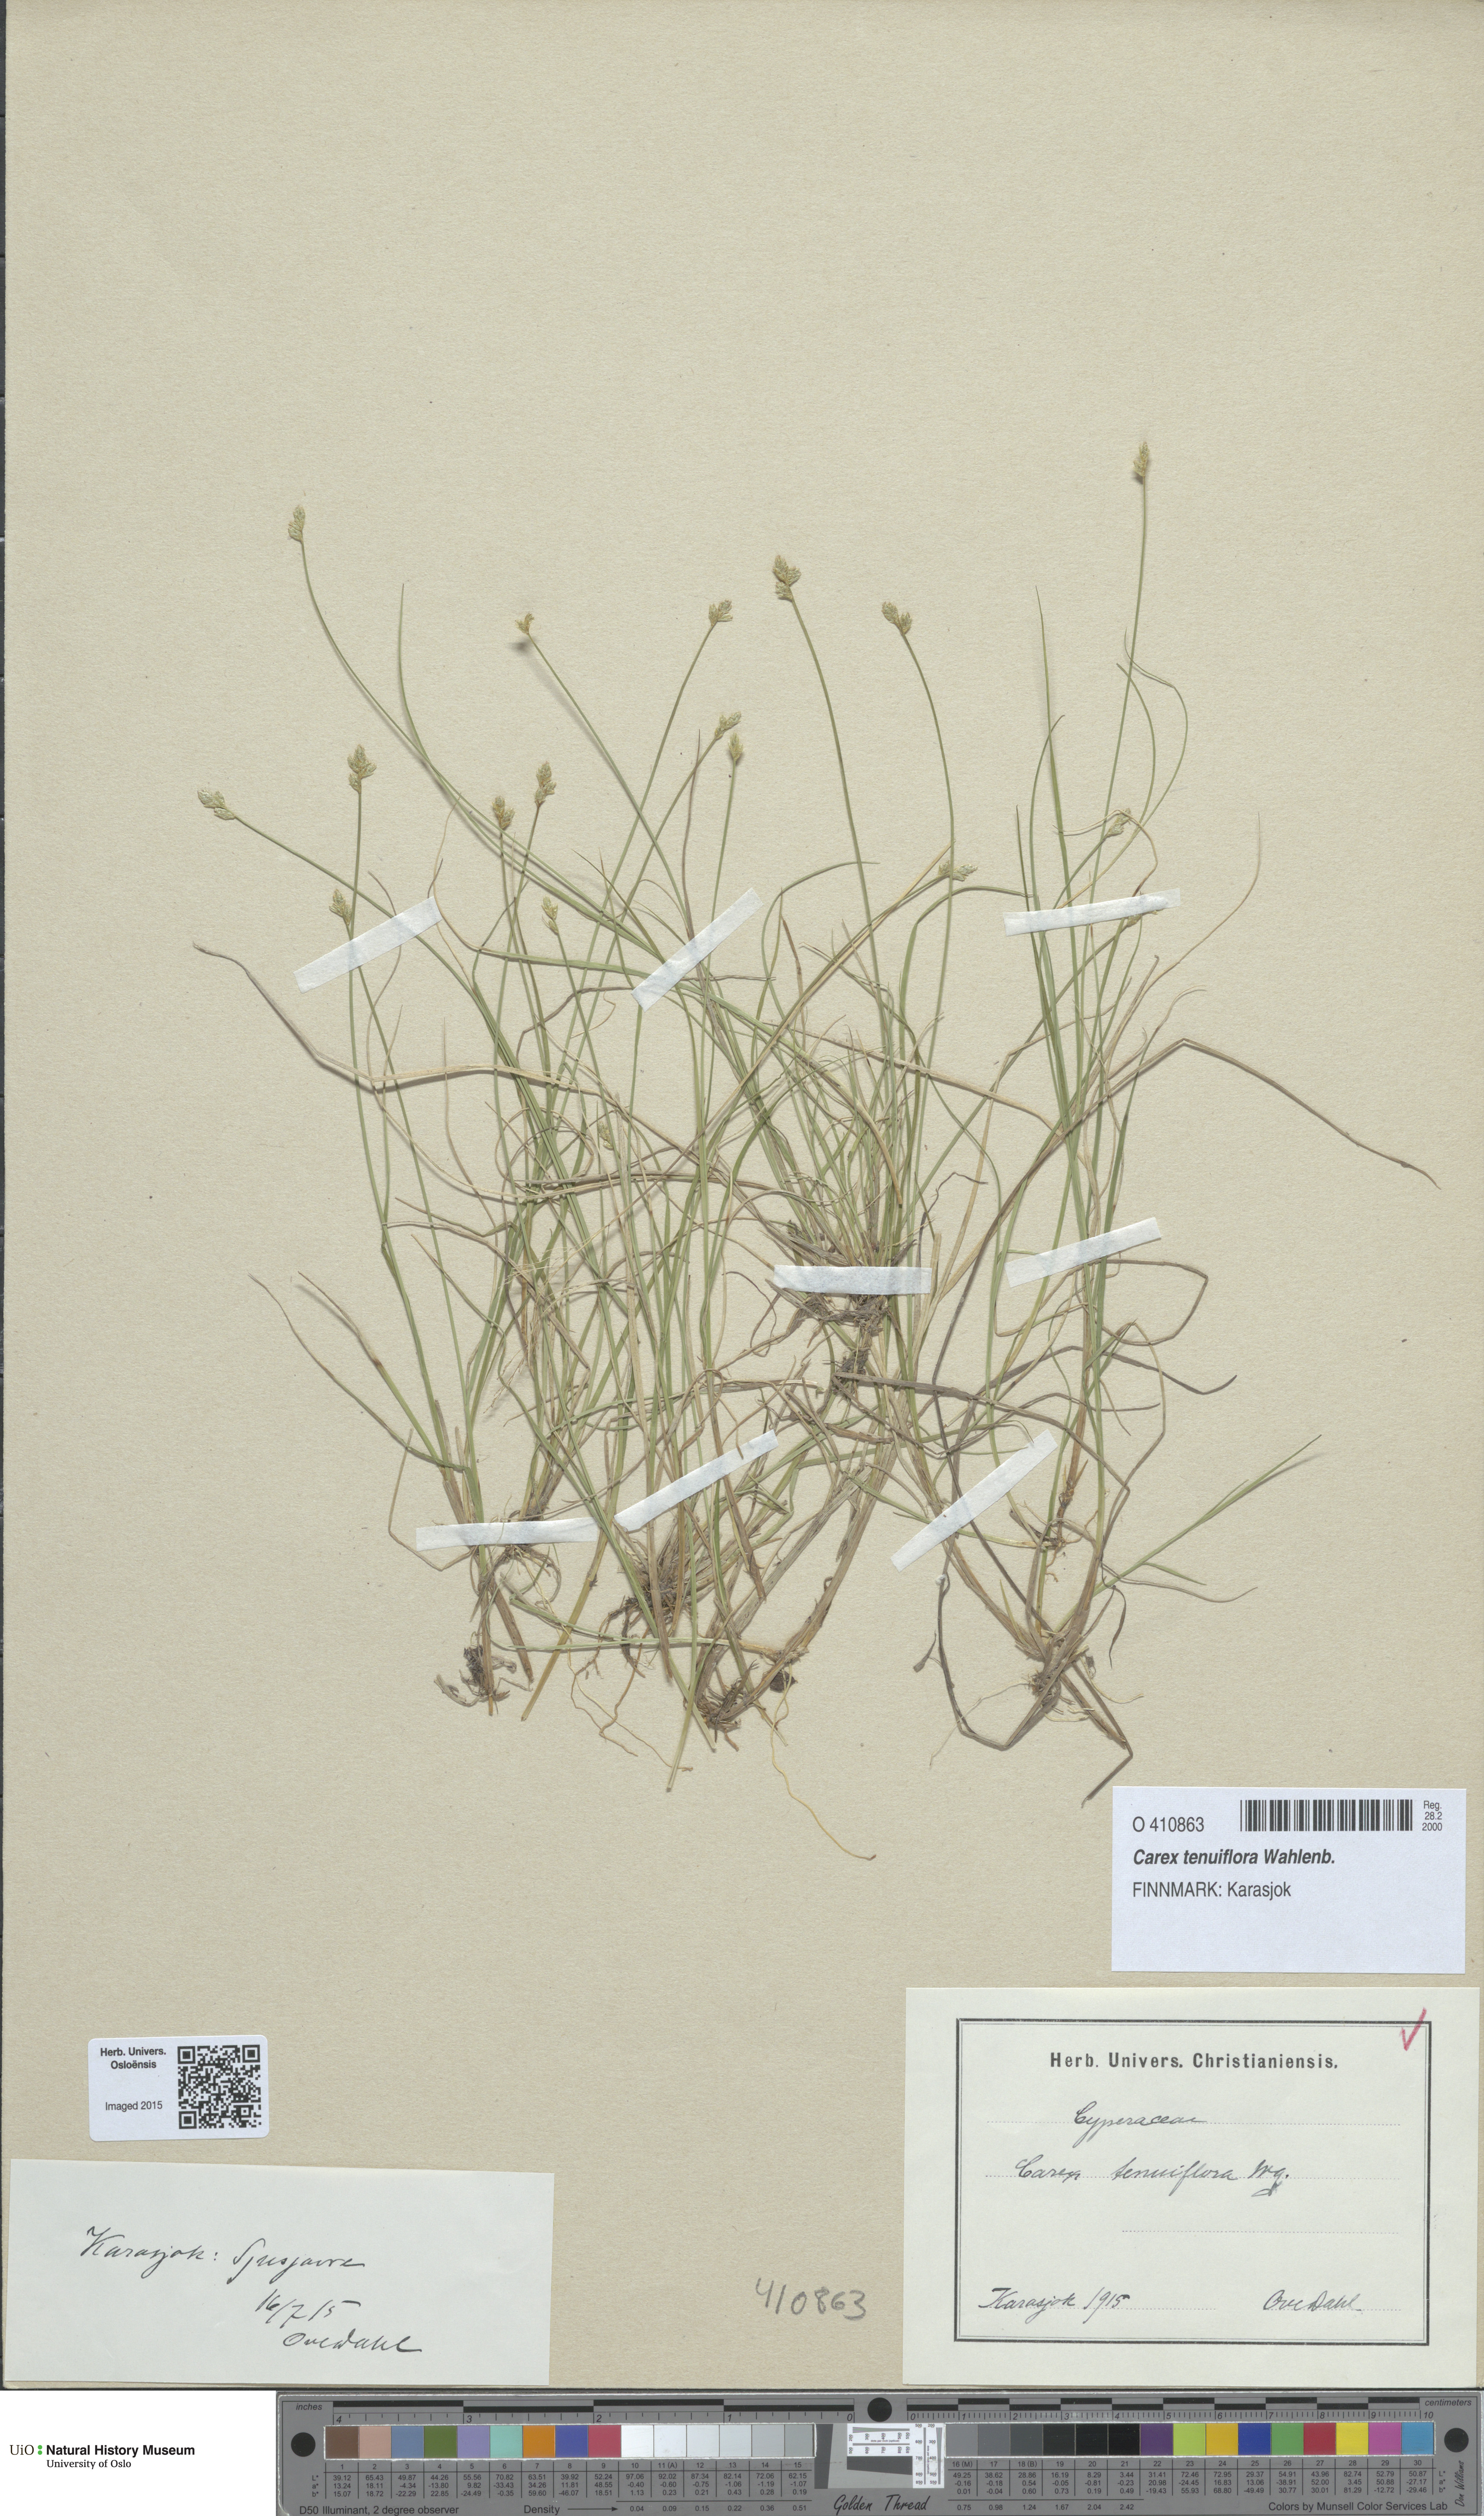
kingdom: Plantae
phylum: Tracheophyta
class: Liliopsida
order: Poales
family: Cyperaceae
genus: Carex
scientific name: Carex tenuiflora
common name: Sparse-flowered sedge
